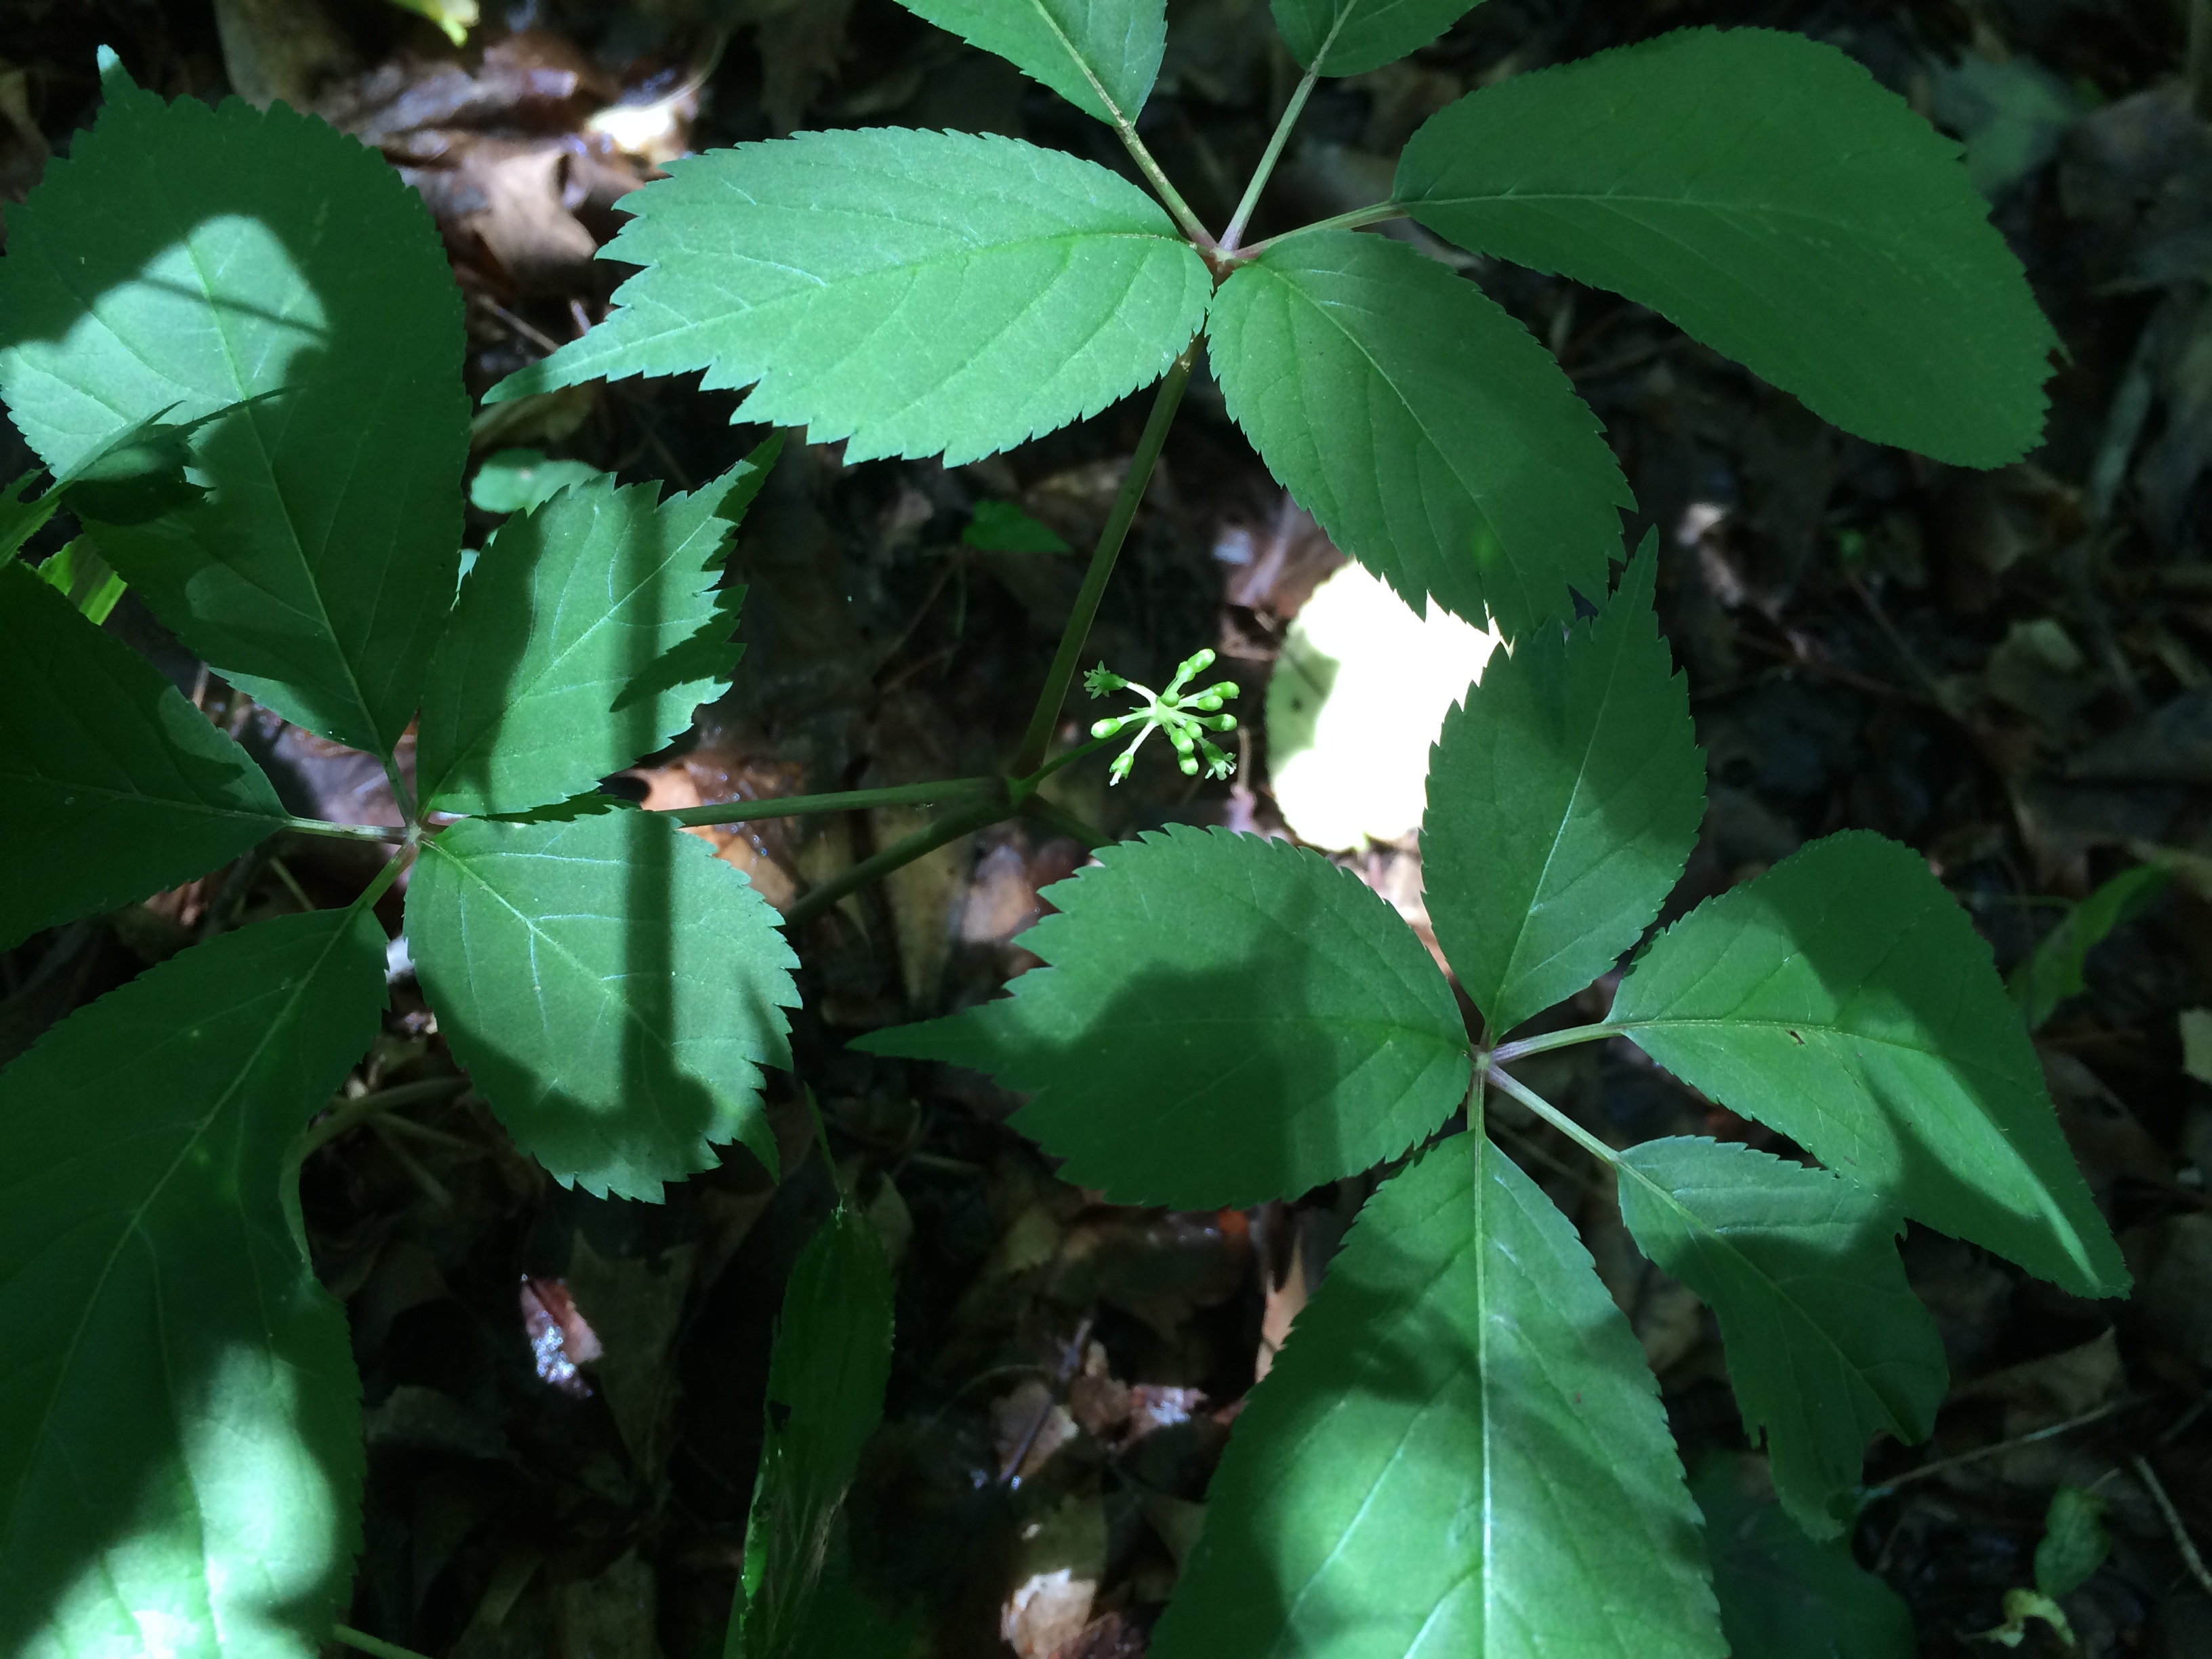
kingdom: Plantae
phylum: Tracheophyta
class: Magnoliopsida
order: Apiales
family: Araliaceae
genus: Panax
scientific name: Panax quinquefolius
